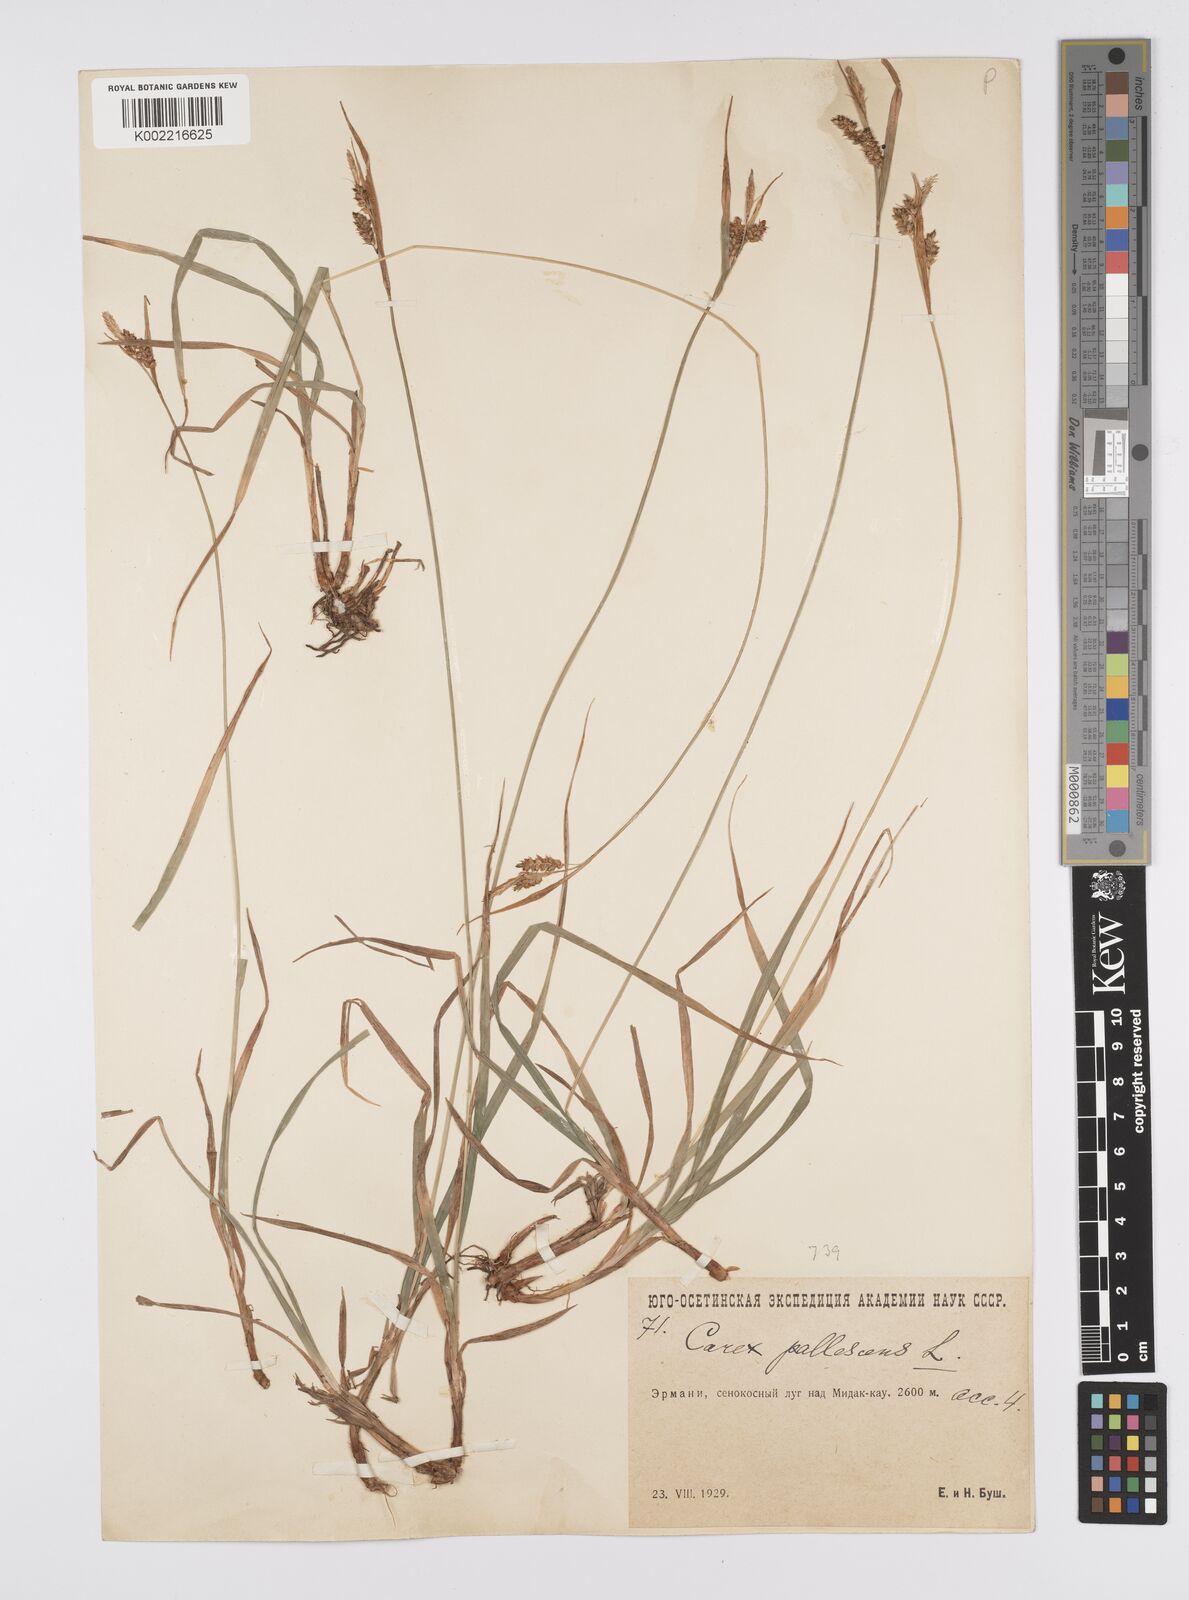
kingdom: Plantae
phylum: Tracheophyta
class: Liliopsida
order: Poales
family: Cyperaceae
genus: Carex
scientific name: Carex pallescens
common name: Pale sedge
